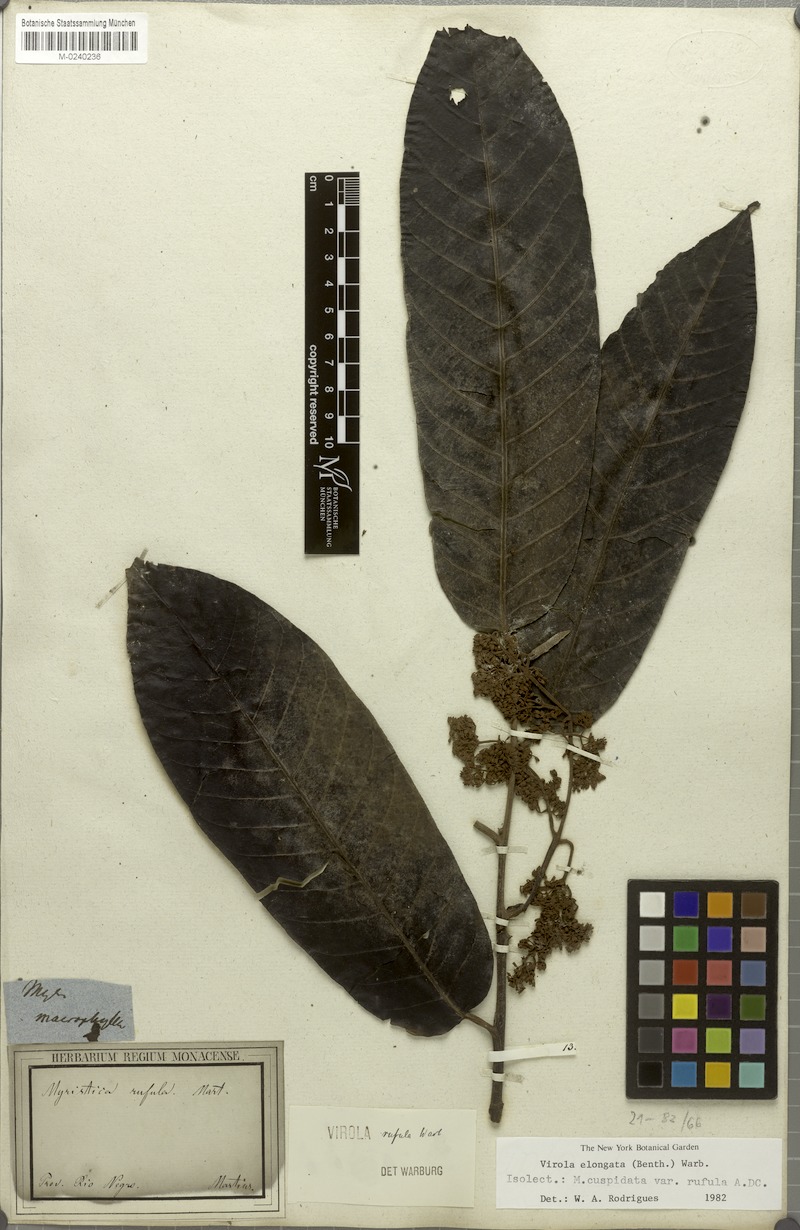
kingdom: Plantae
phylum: Tracheophyta
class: Magnoliopsida
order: Magnoliales
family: Myristicaceae
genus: Virola
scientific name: Virola elongata
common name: Sacred virola
